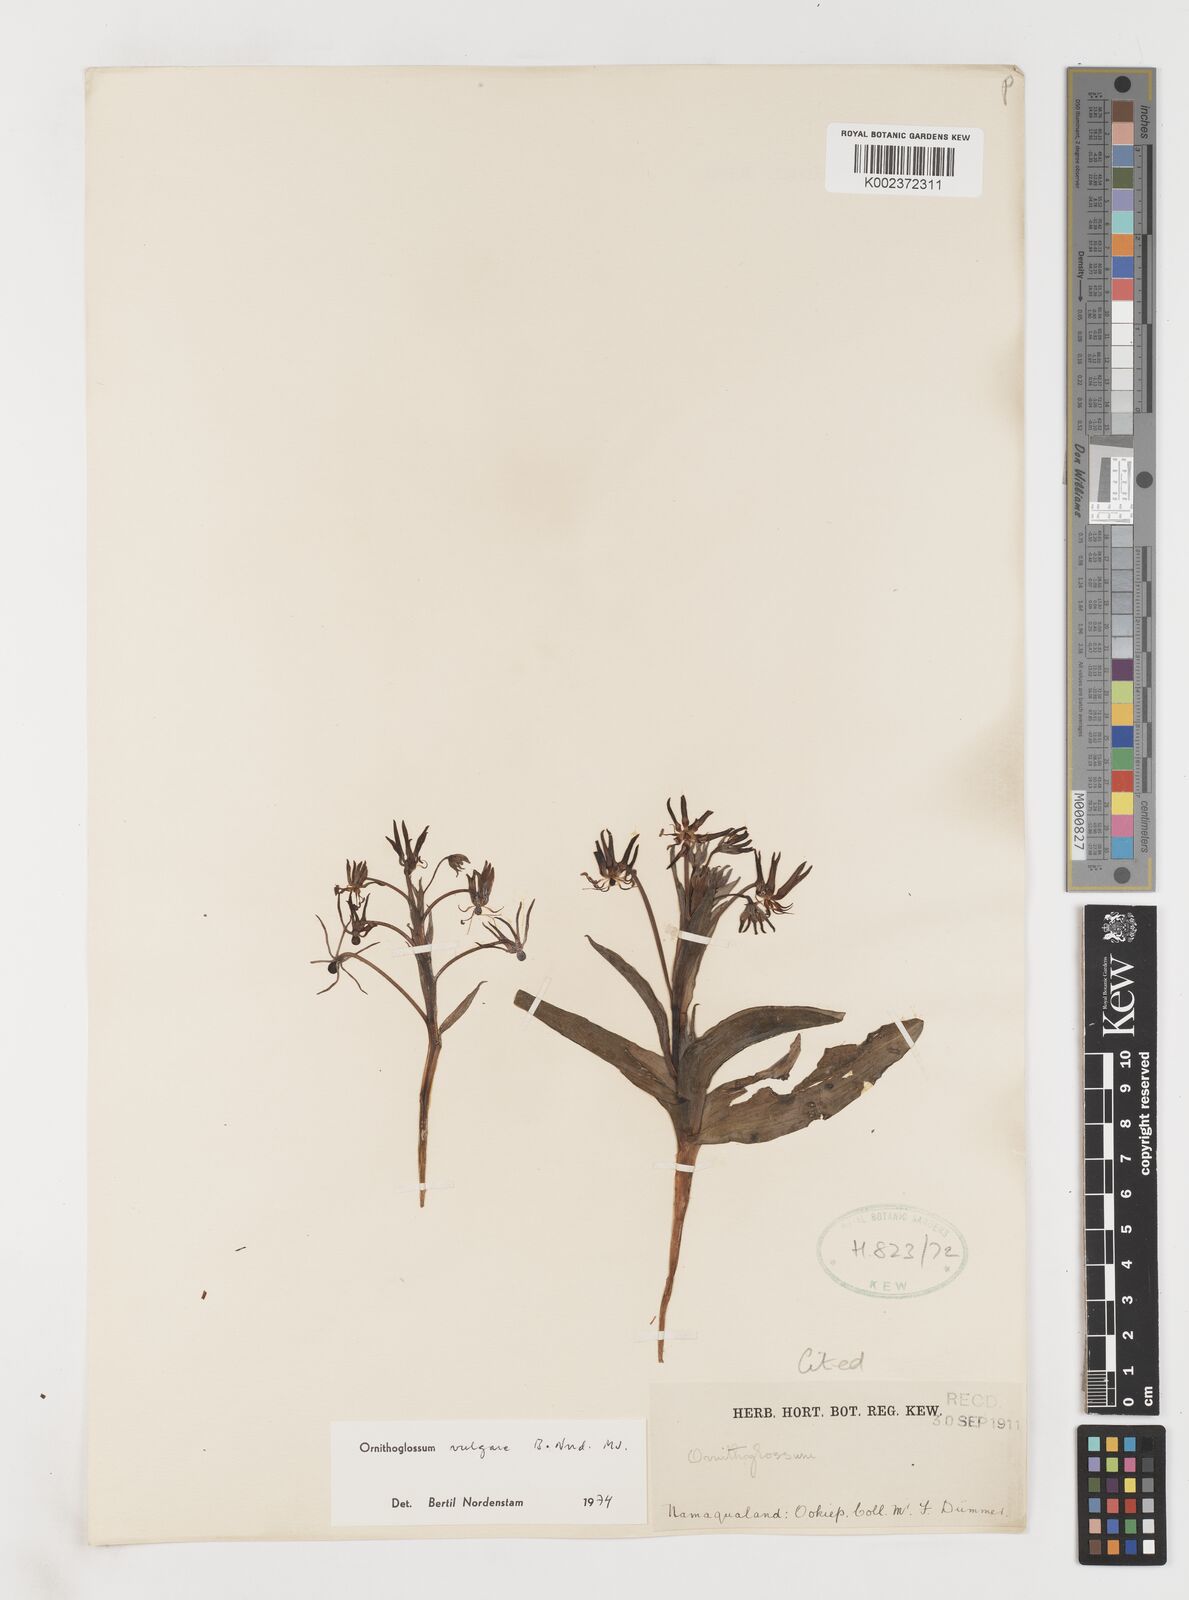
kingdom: Plantae
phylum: Tracheophyta
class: Liliopsida
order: Liliales
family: Colchicaceae
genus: Ornithoglossum
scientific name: Ornithoglossum vulgare
